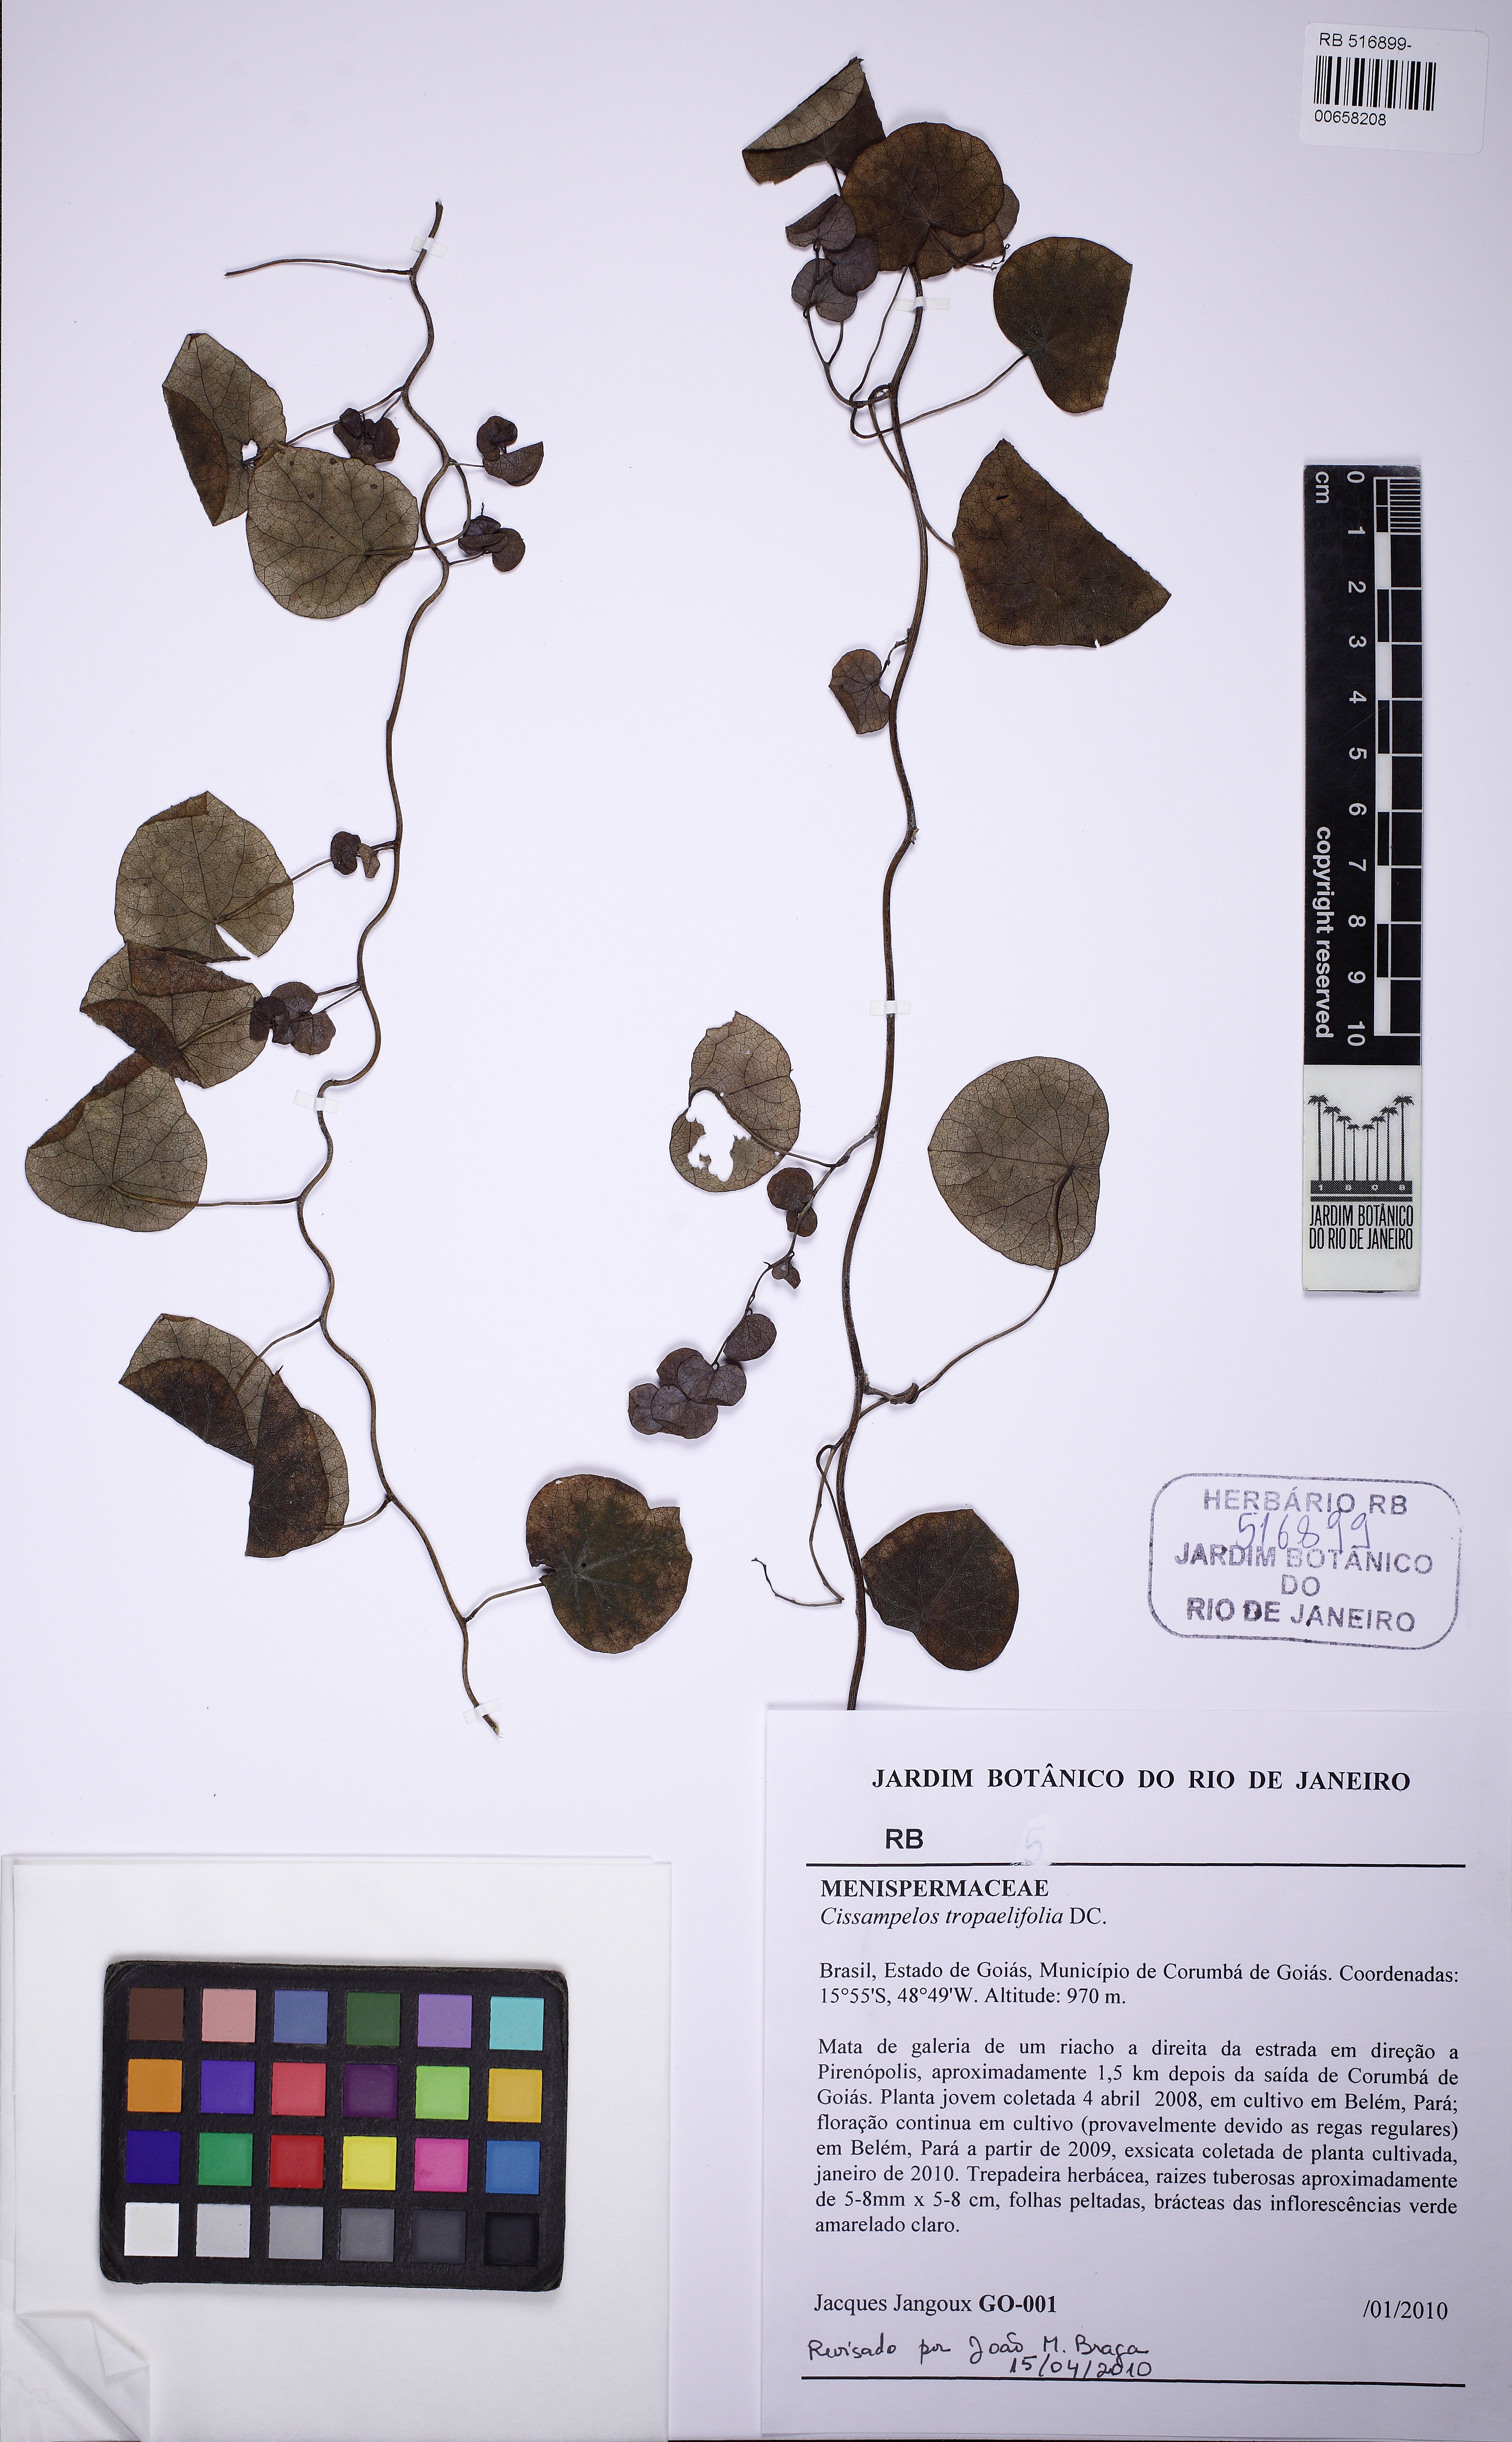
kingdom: Plantae
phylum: Tracheophyta
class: Magnoliopsida
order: Ranunculales
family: Menispermaceae
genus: Cissampelos
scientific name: Cissampelos tropaeolifolia
